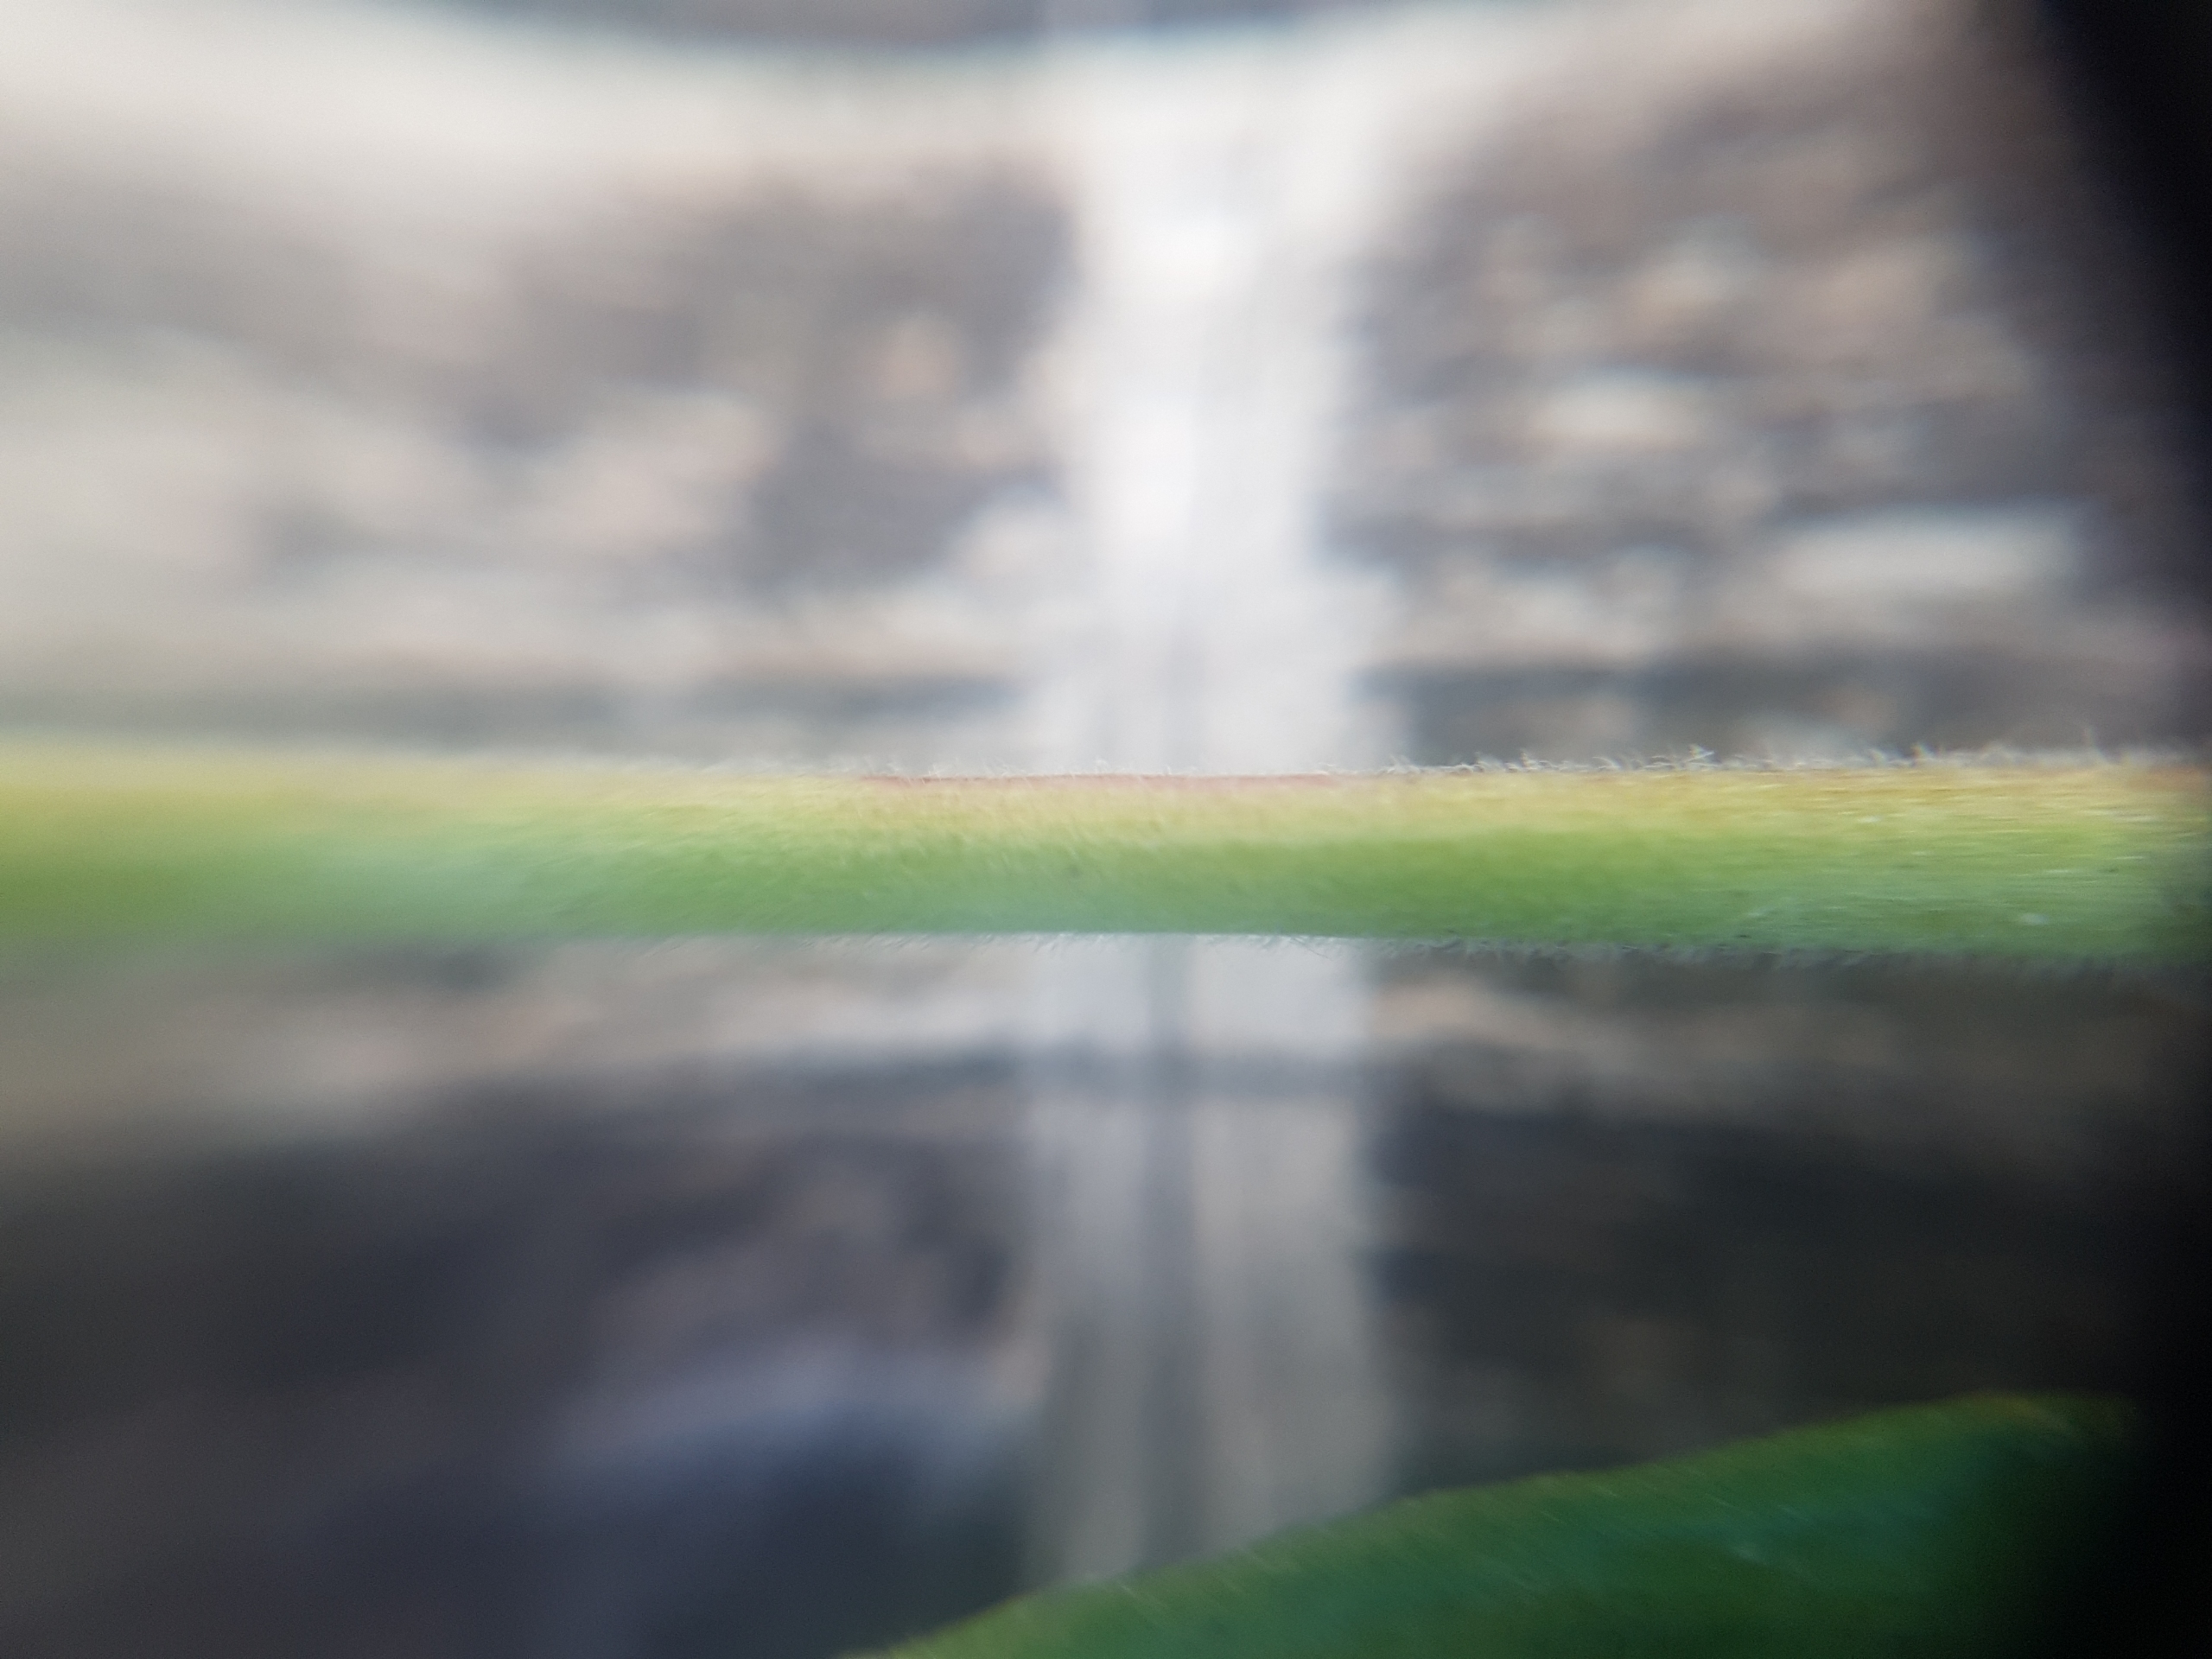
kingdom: Plantae
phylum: Tracheophyta
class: Magnoliopsida
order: Myrtales
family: Onagraceae
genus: Epilobium
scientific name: Epilobium montanum
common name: Glat dueurt
